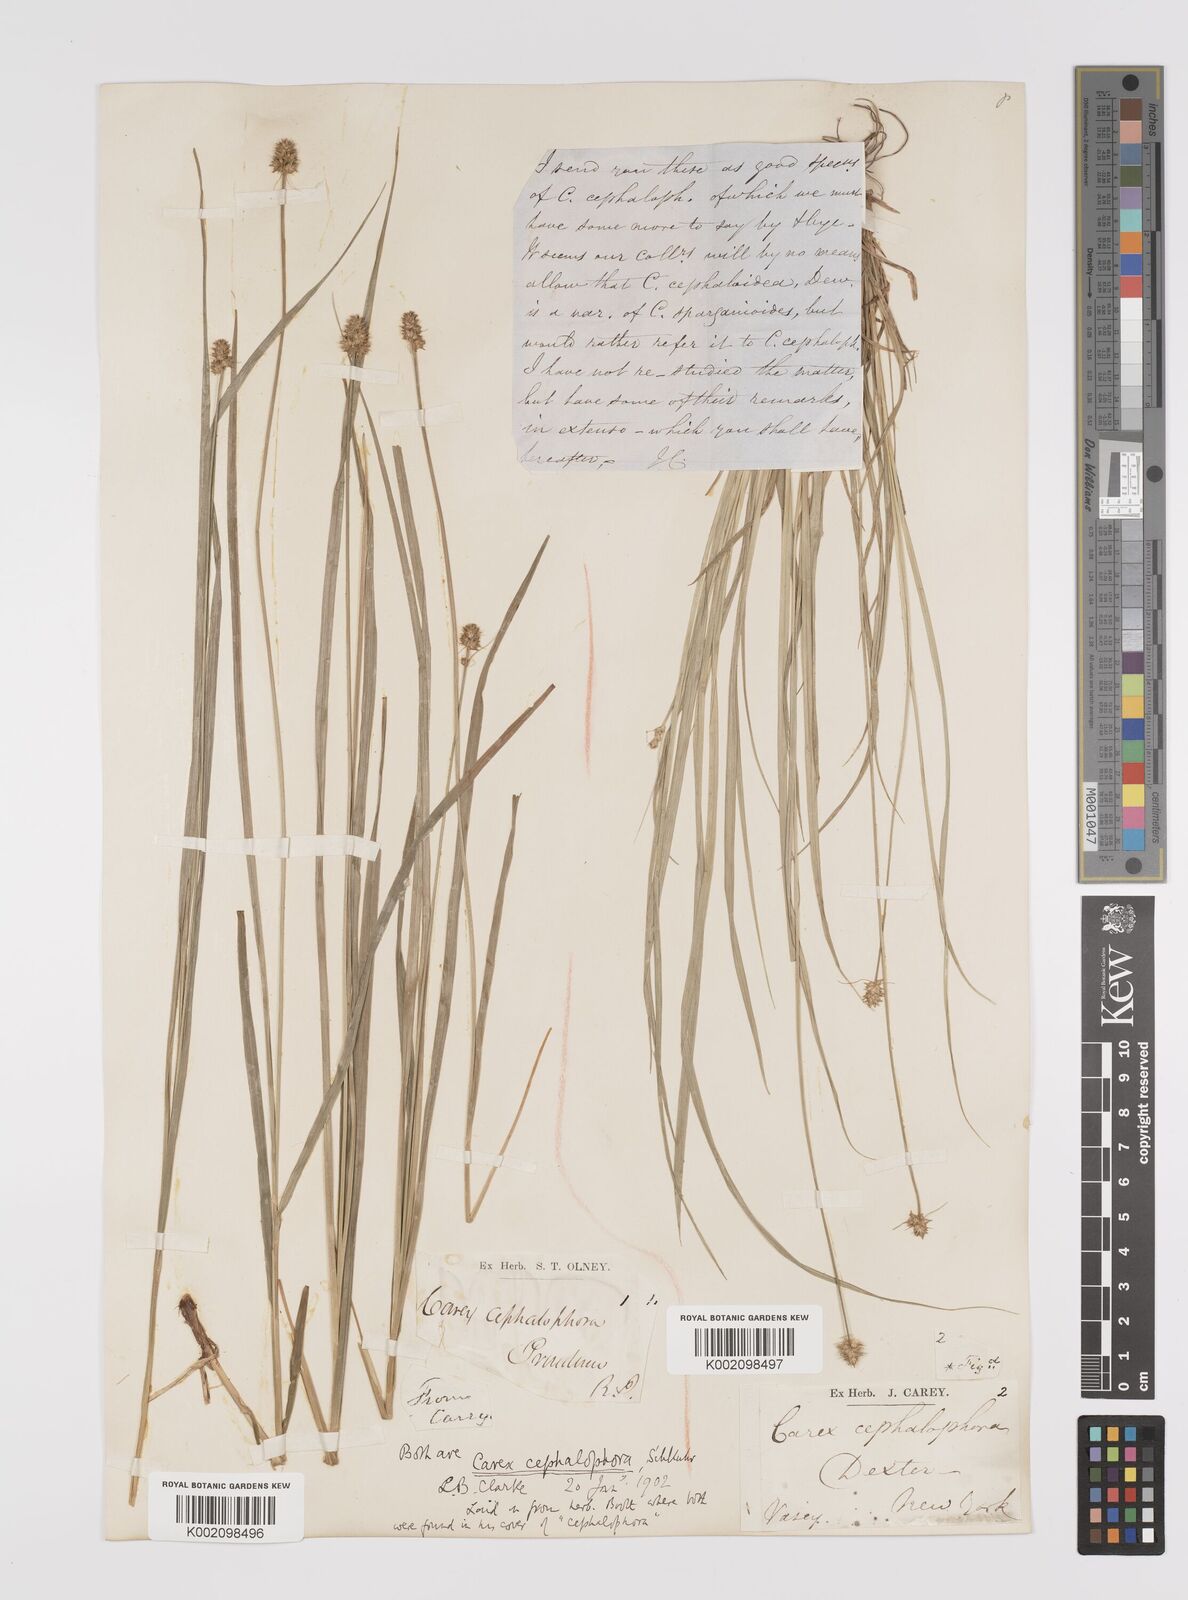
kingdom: Plantae
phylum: Tracheophyta
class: Liliopsida
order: Poales
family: Cyperaceae
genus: Carex
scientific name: Carex cephalophora
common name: Oval-headed sedge
